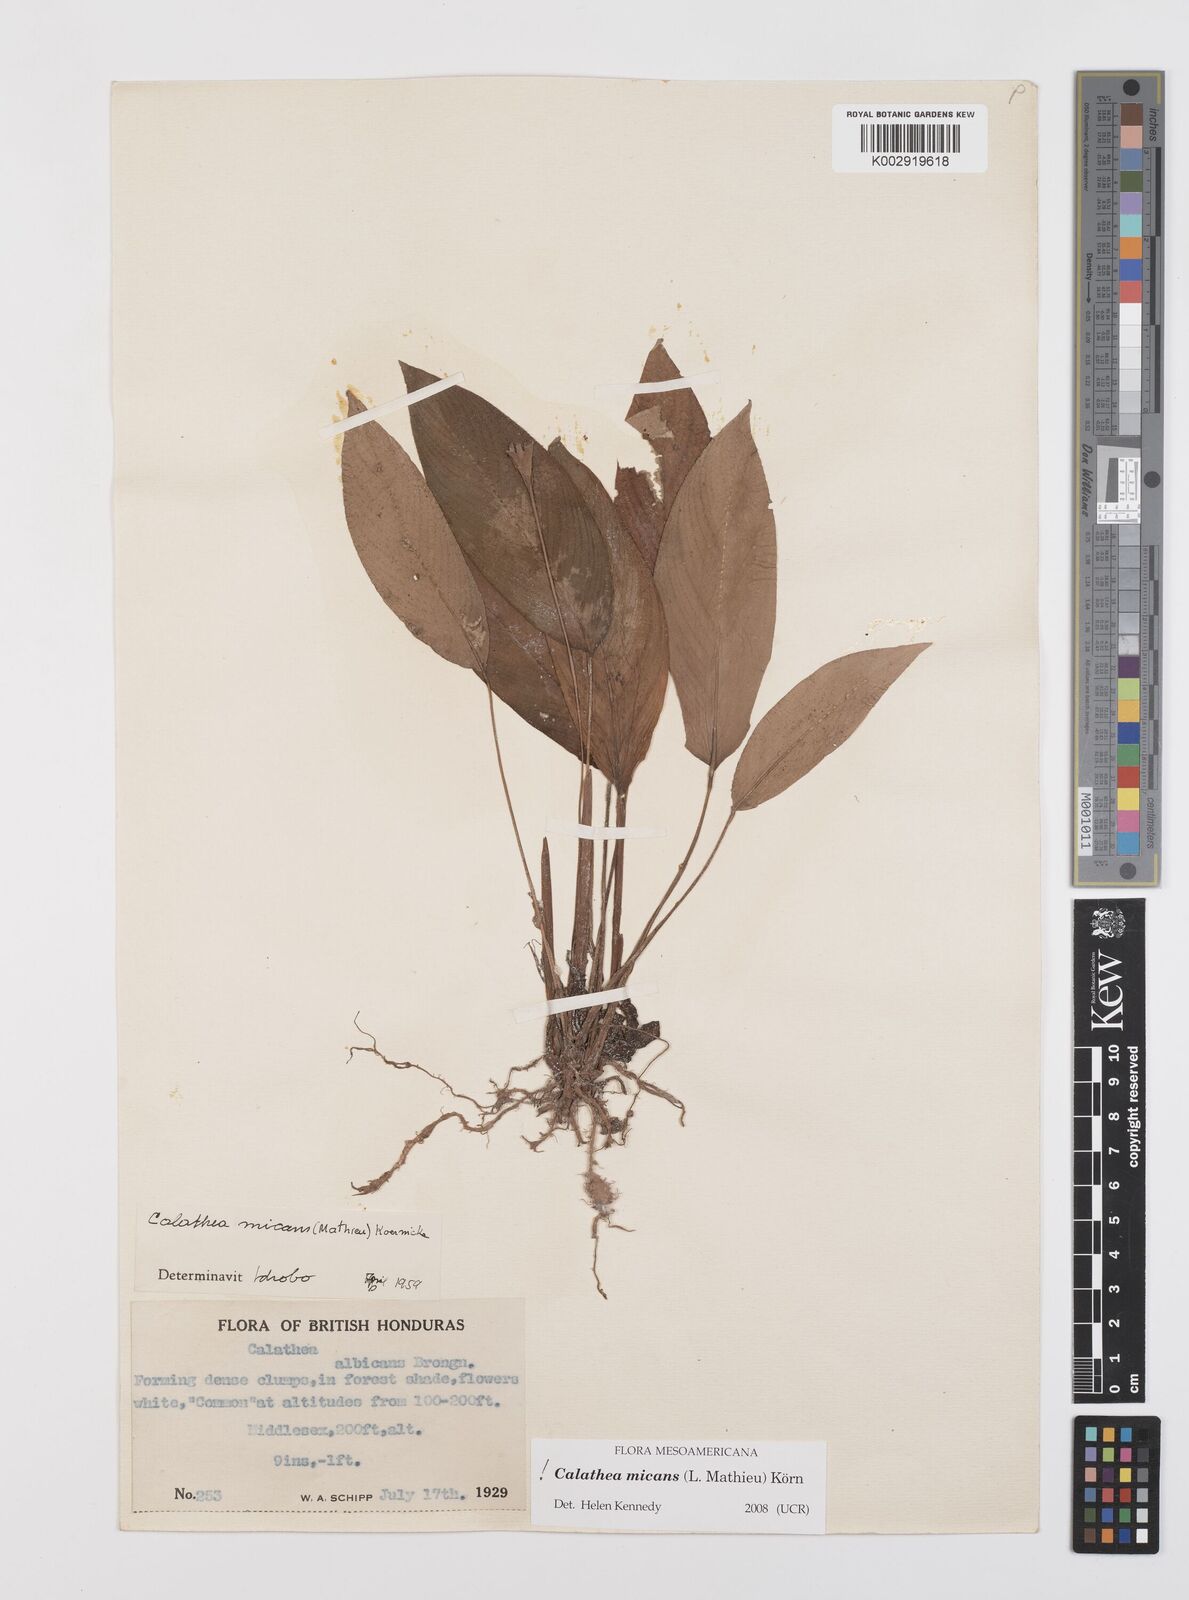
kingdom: Plantae
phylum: Tracheophyta
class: Liliopsida
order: Zingiberales
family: Marantaceae
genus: Goeppertia
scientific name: Goeppertia micans
